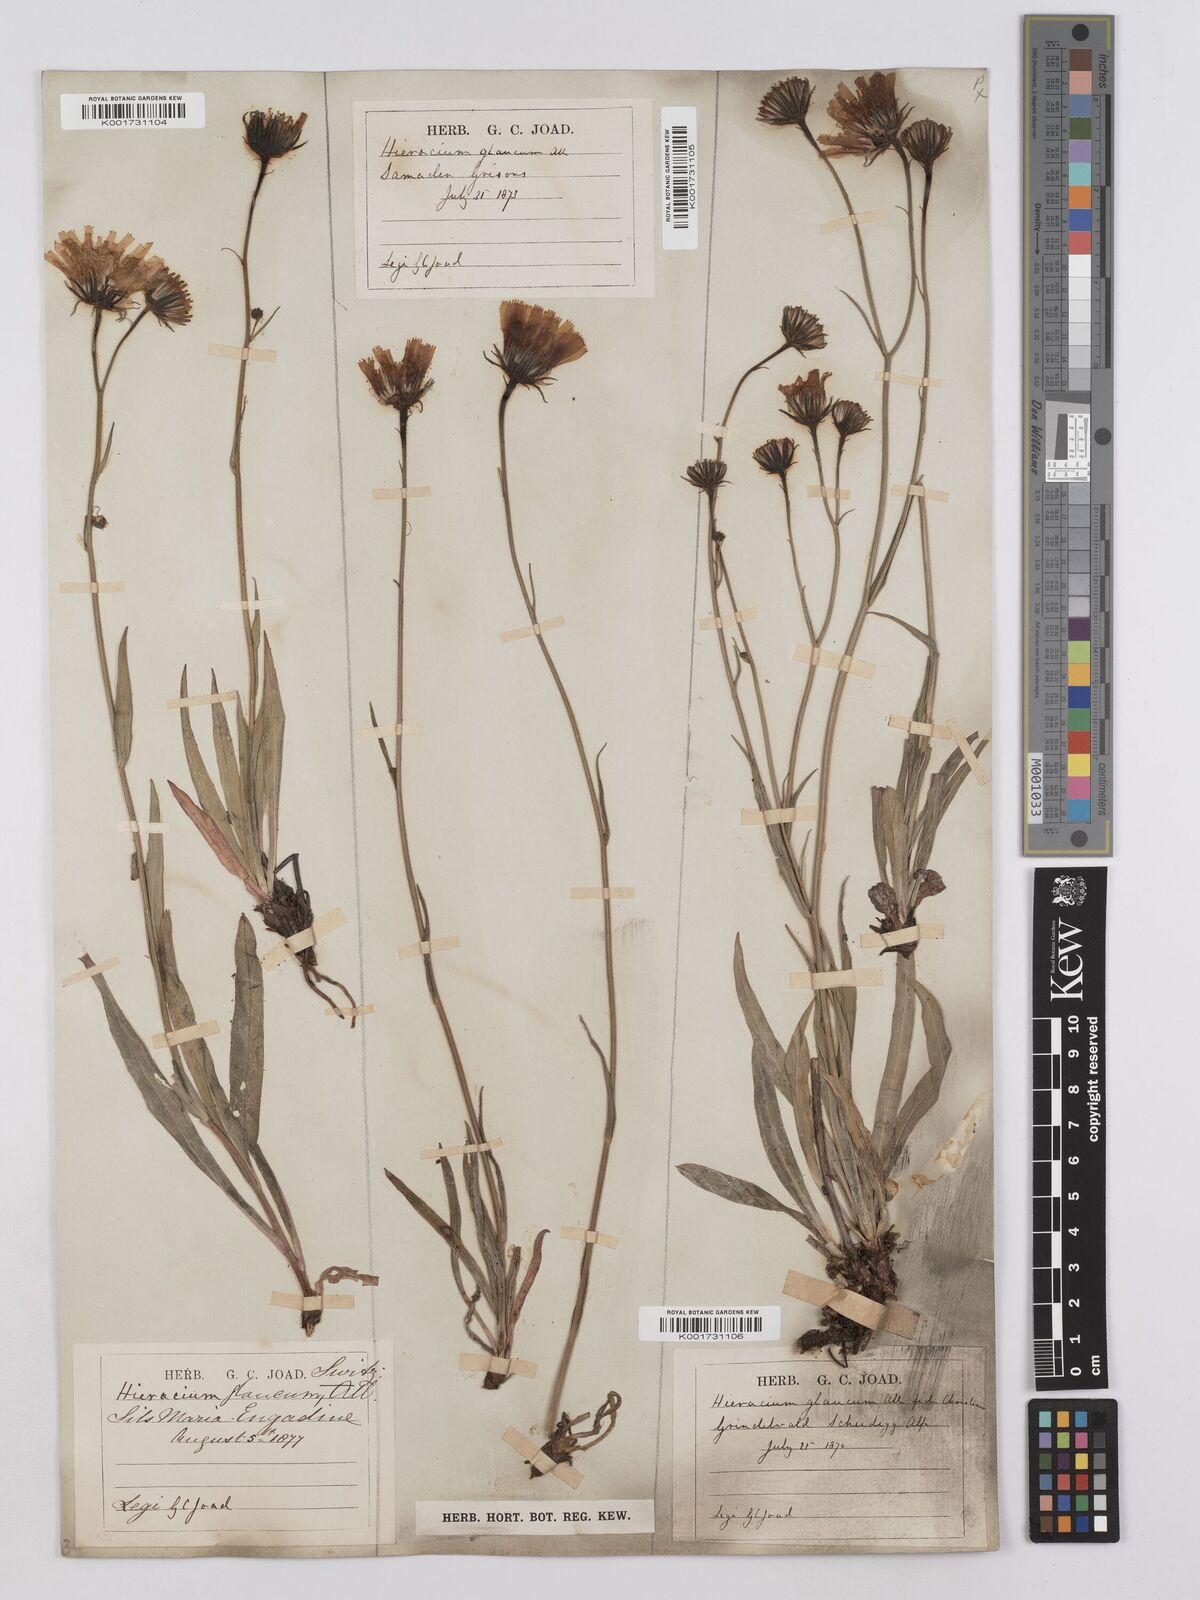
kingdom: Plantae
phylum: Tracheophyta
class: Magnoliopsida
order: Asterales
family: Asteraceae
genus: Hieracium
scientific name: Hieracium glaucum
